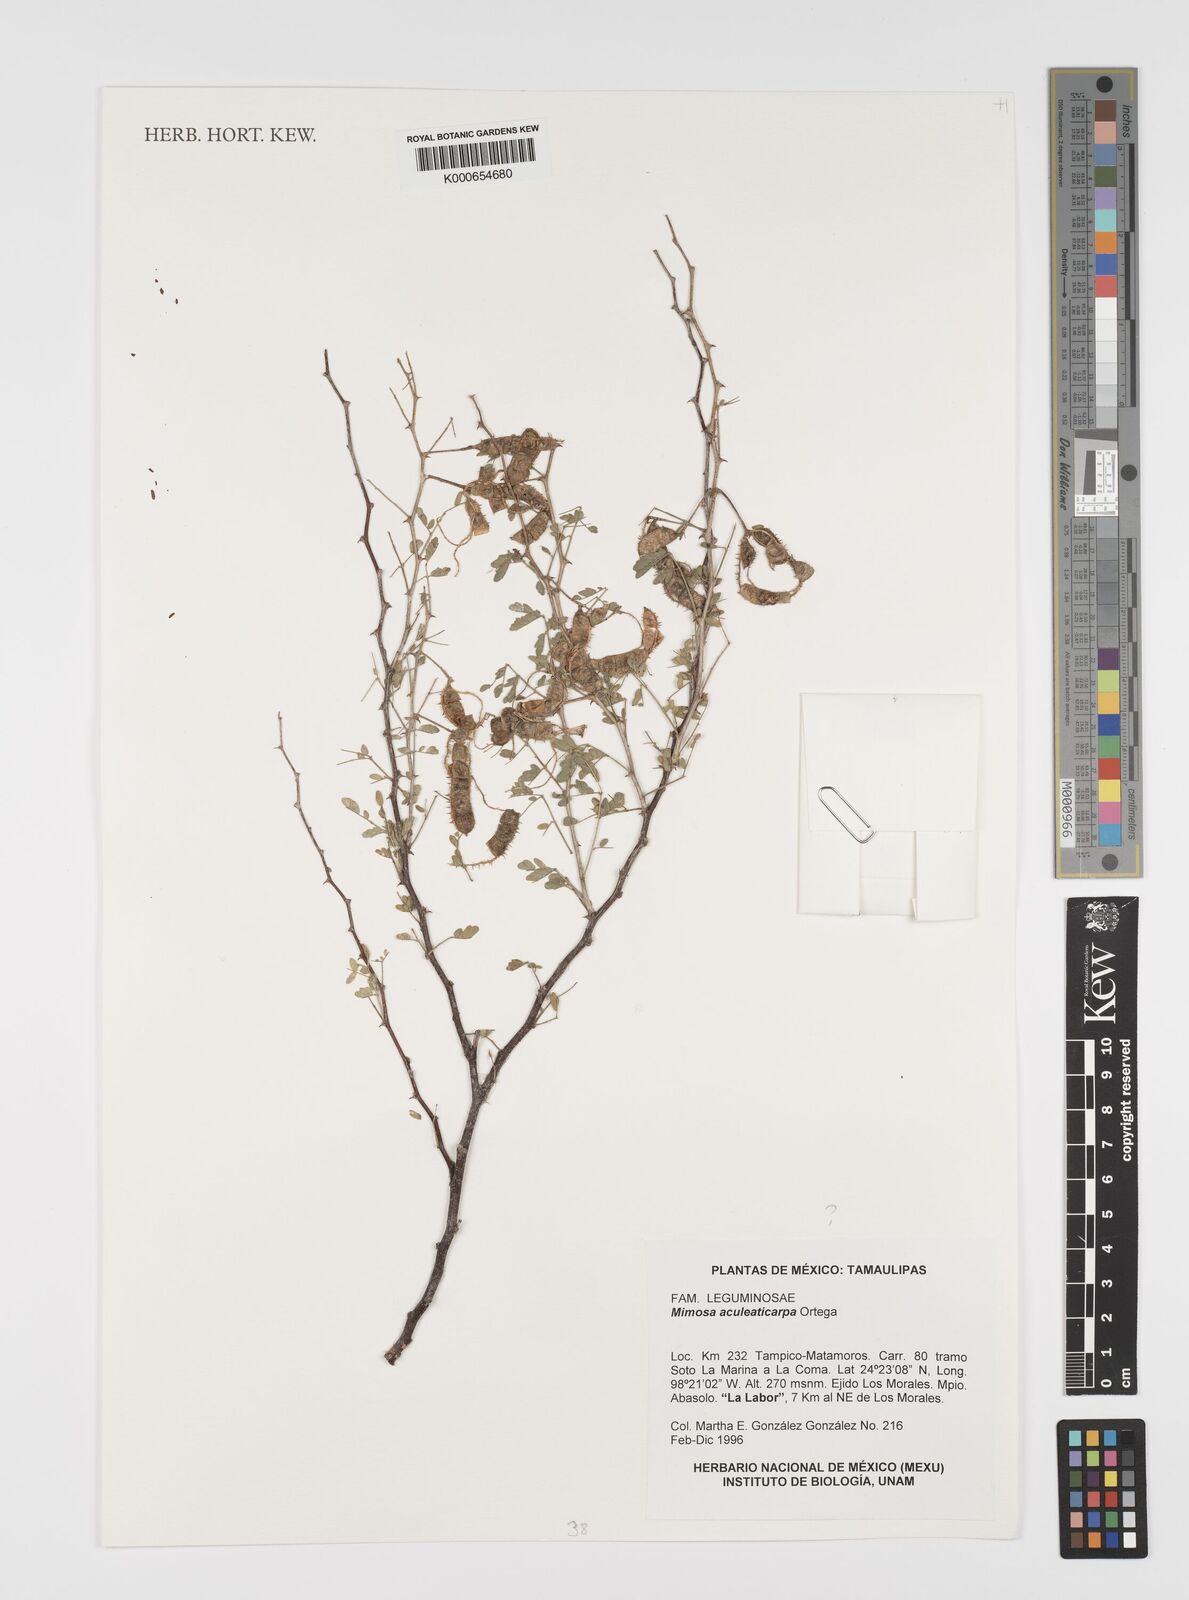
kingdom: Plantae
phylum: Tracheophyta
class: Magnoliopsida
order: Fabales
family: Fabaceae
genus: Mimosa
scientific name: Mimosa aculeaticarpa
